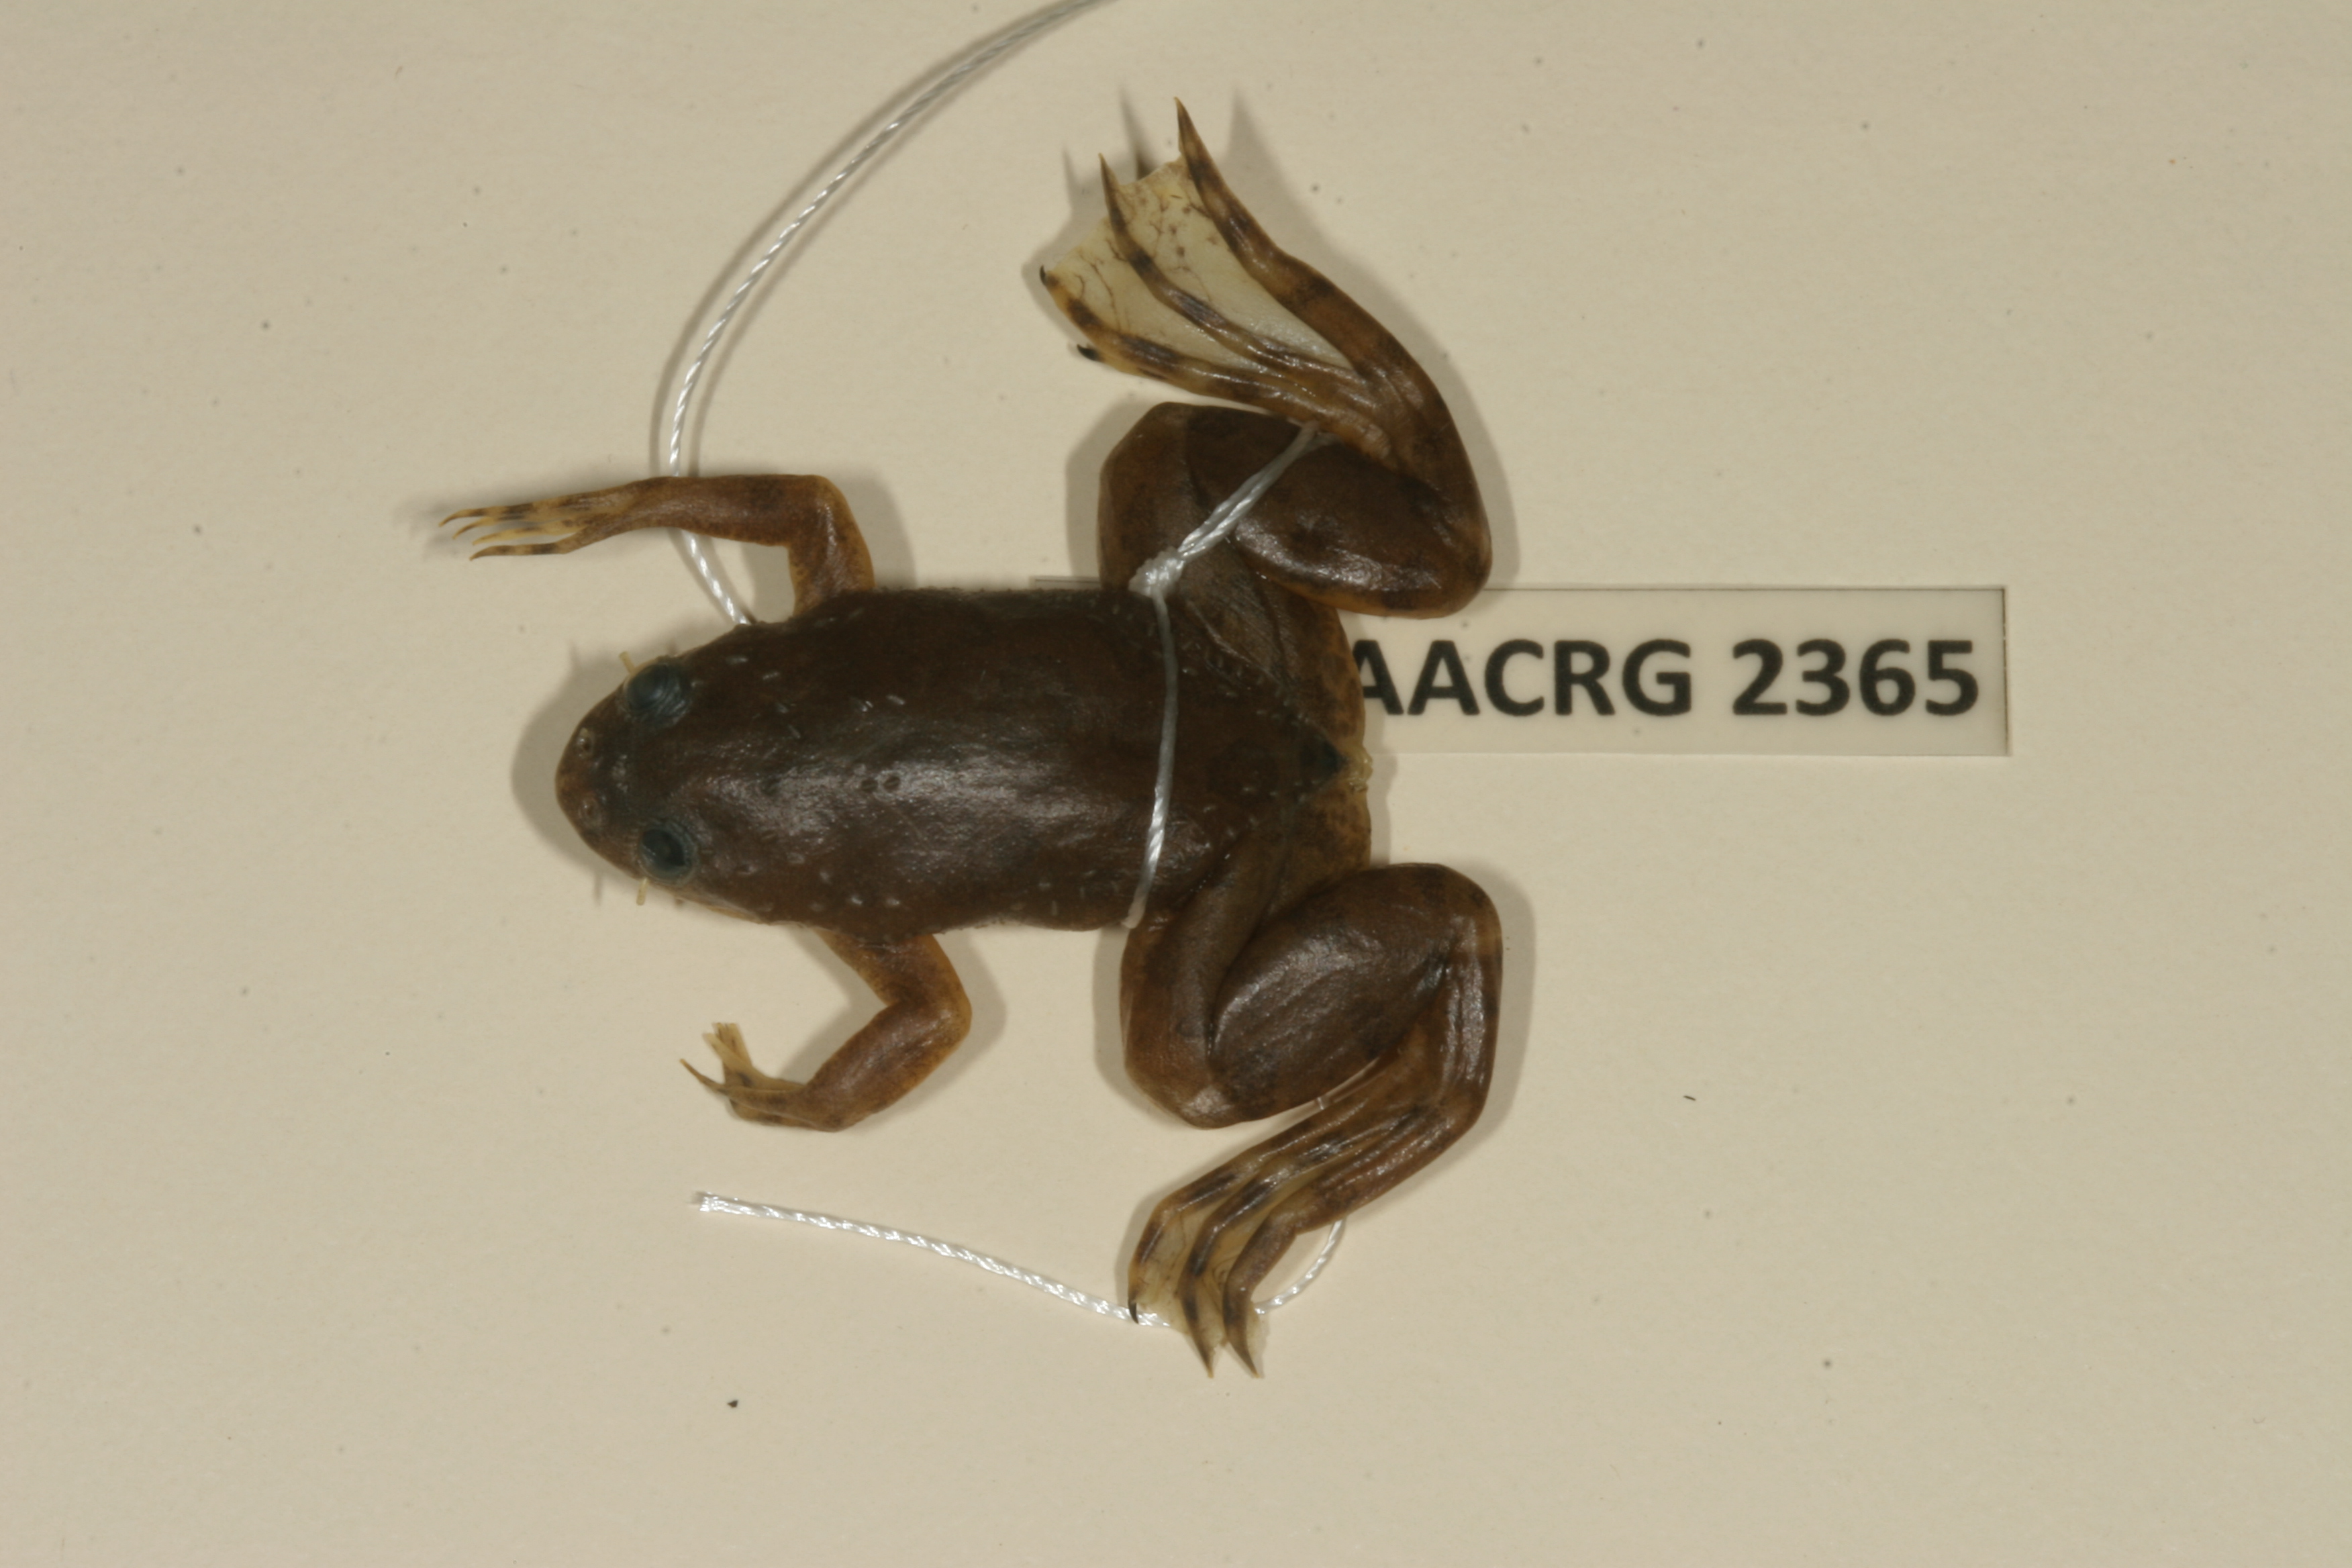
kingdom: Animalia
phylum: Chordata
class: Amphibia
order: Anura
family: Pipidae
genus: Xenopus
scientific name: Xenopus muelleri
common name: Muller's clawed frog
